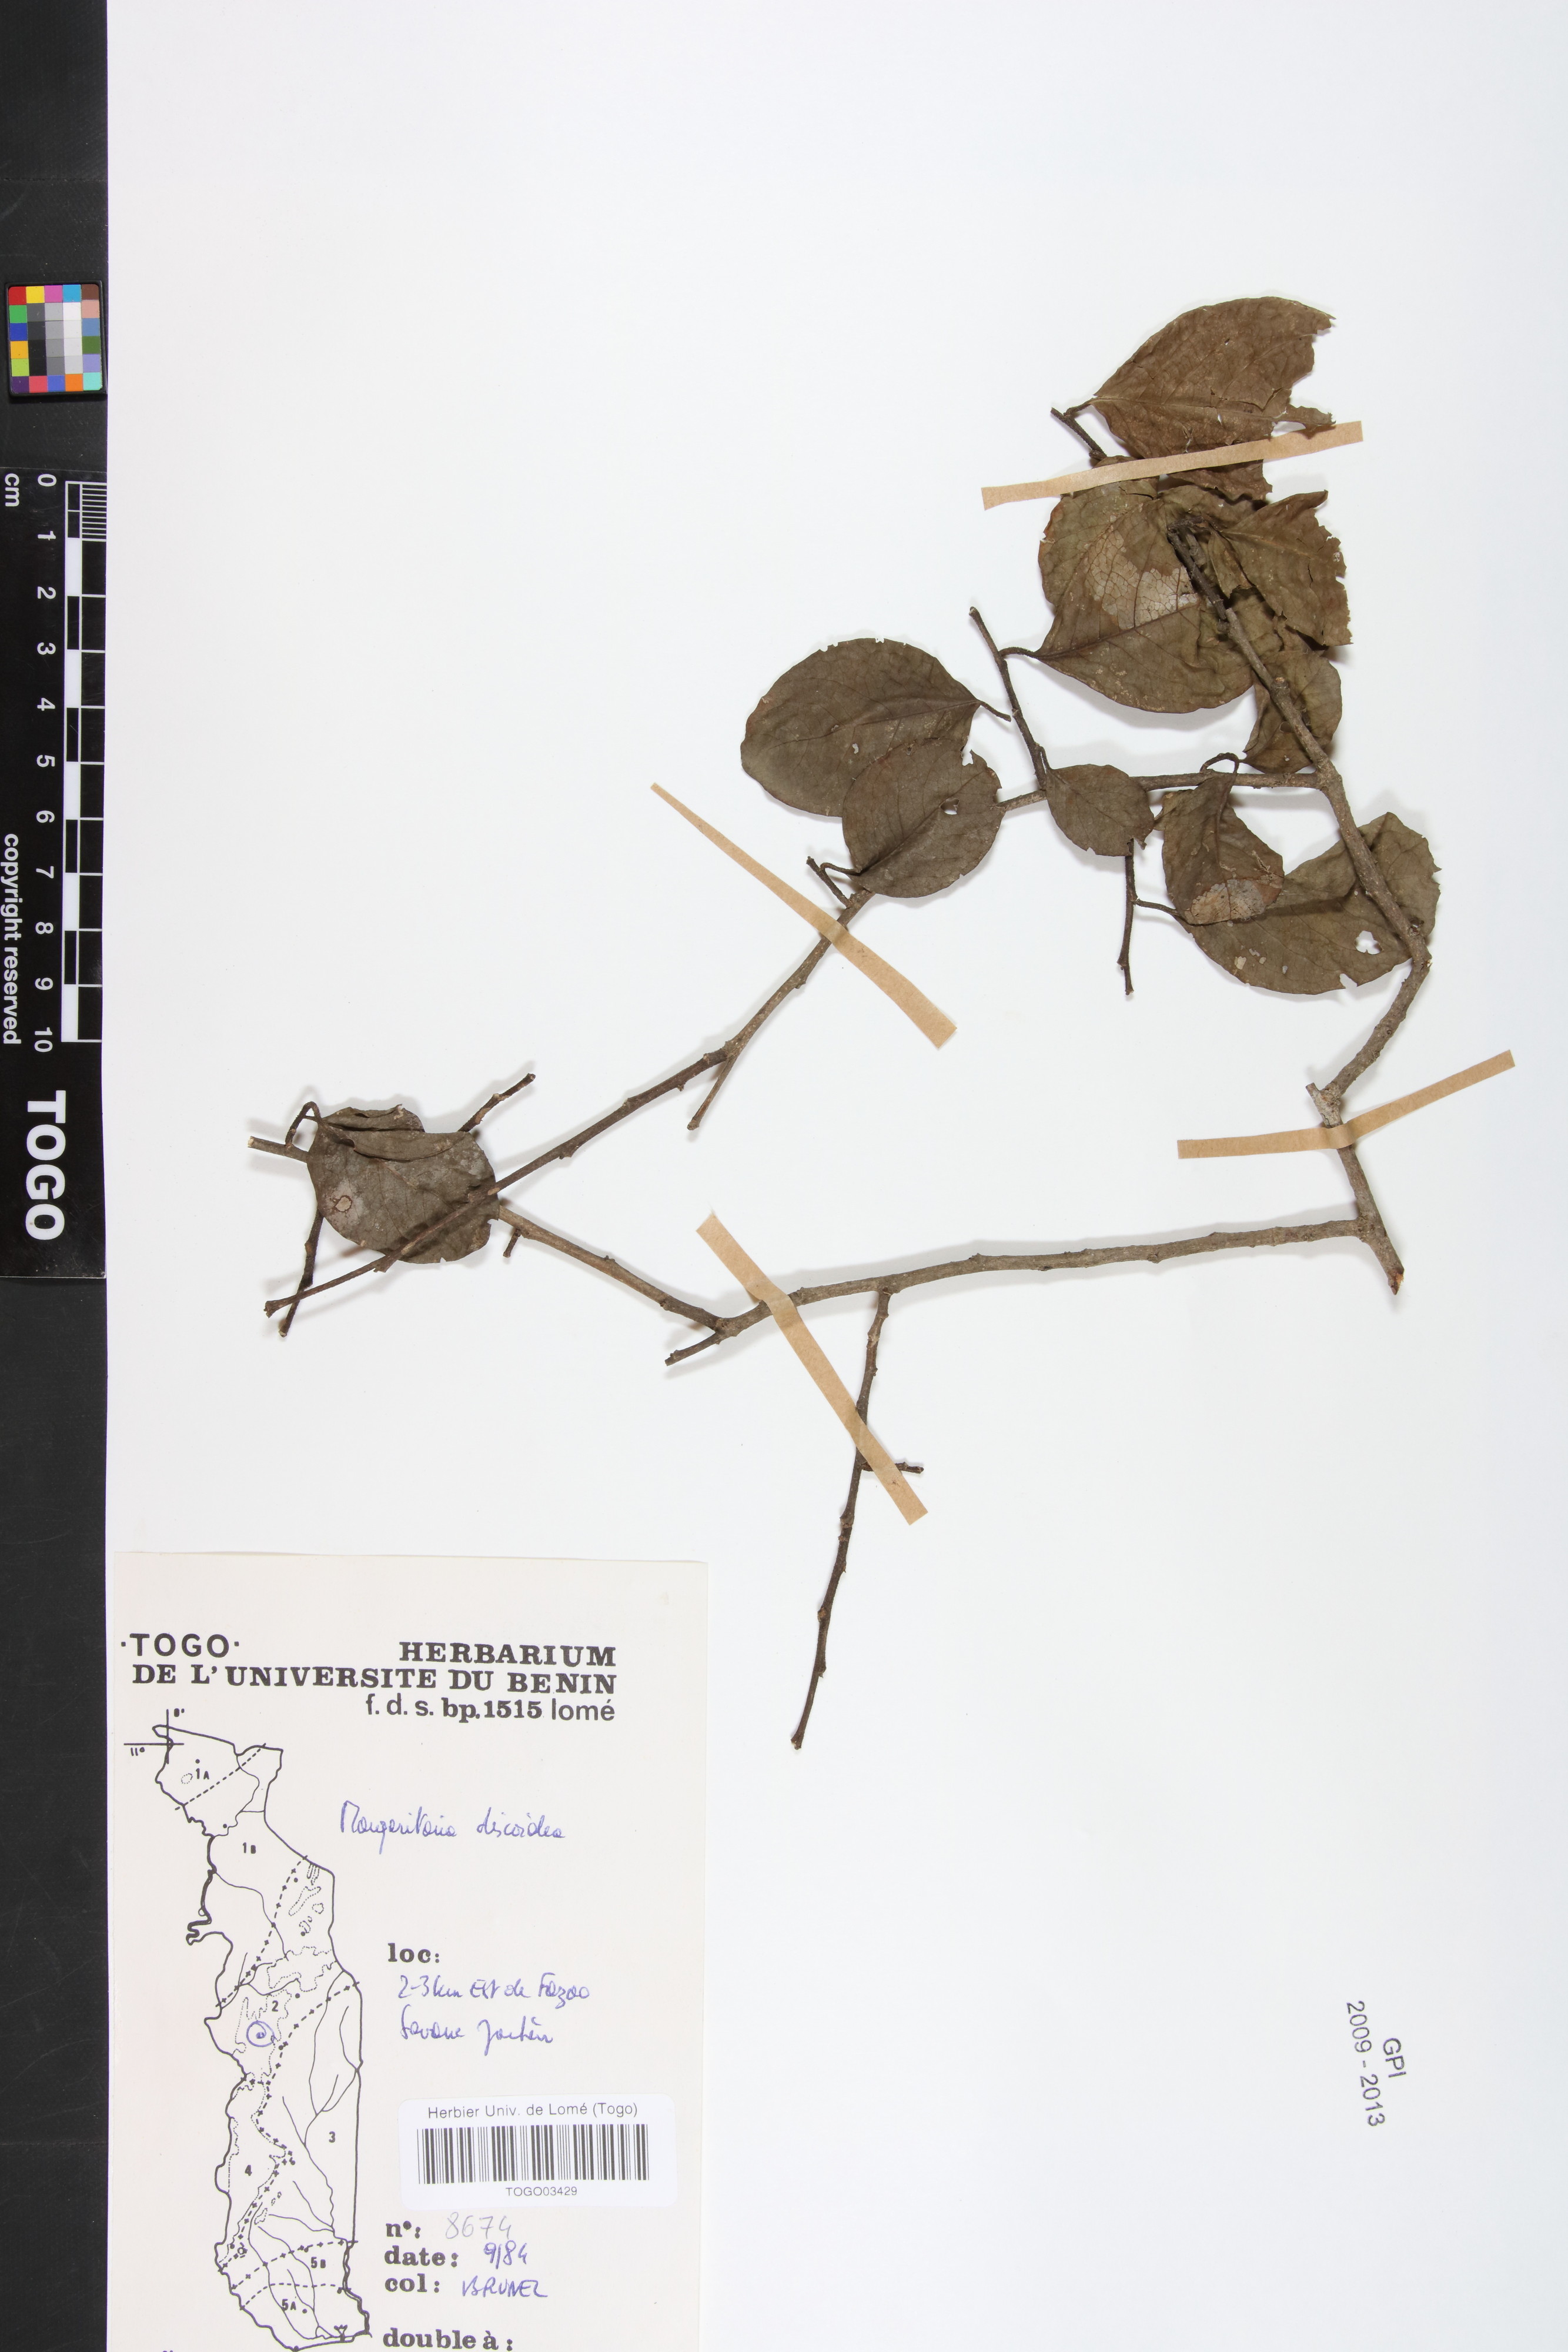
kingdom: Plantae
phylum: Tracheophyta
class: Magnoliopsida
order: Malpighiales
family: Phyllanthaceae
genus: Margaritaria
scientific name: Margaritaria discoidea
